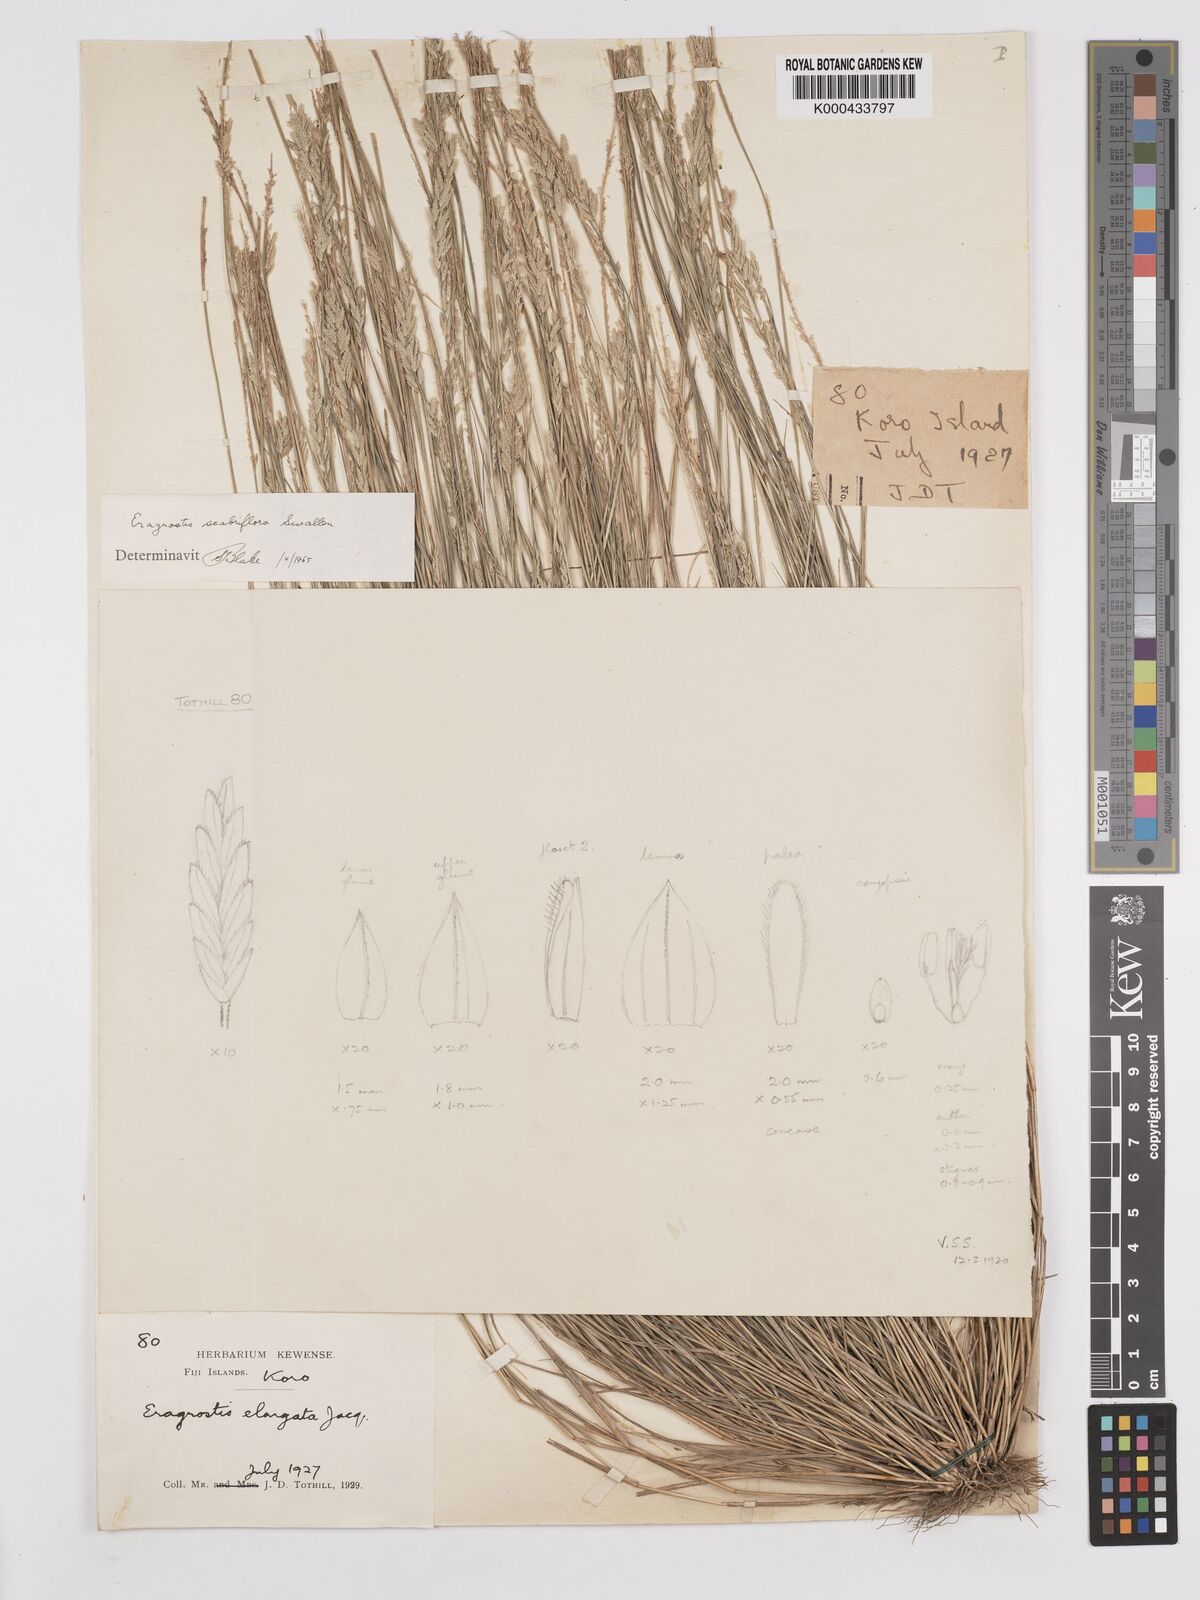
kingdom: Plantae
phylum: Tracheophyta
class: Liliopsida
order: Poales
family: Poaceae
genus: Eragrostis
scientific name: Eragrostis scabriflora
